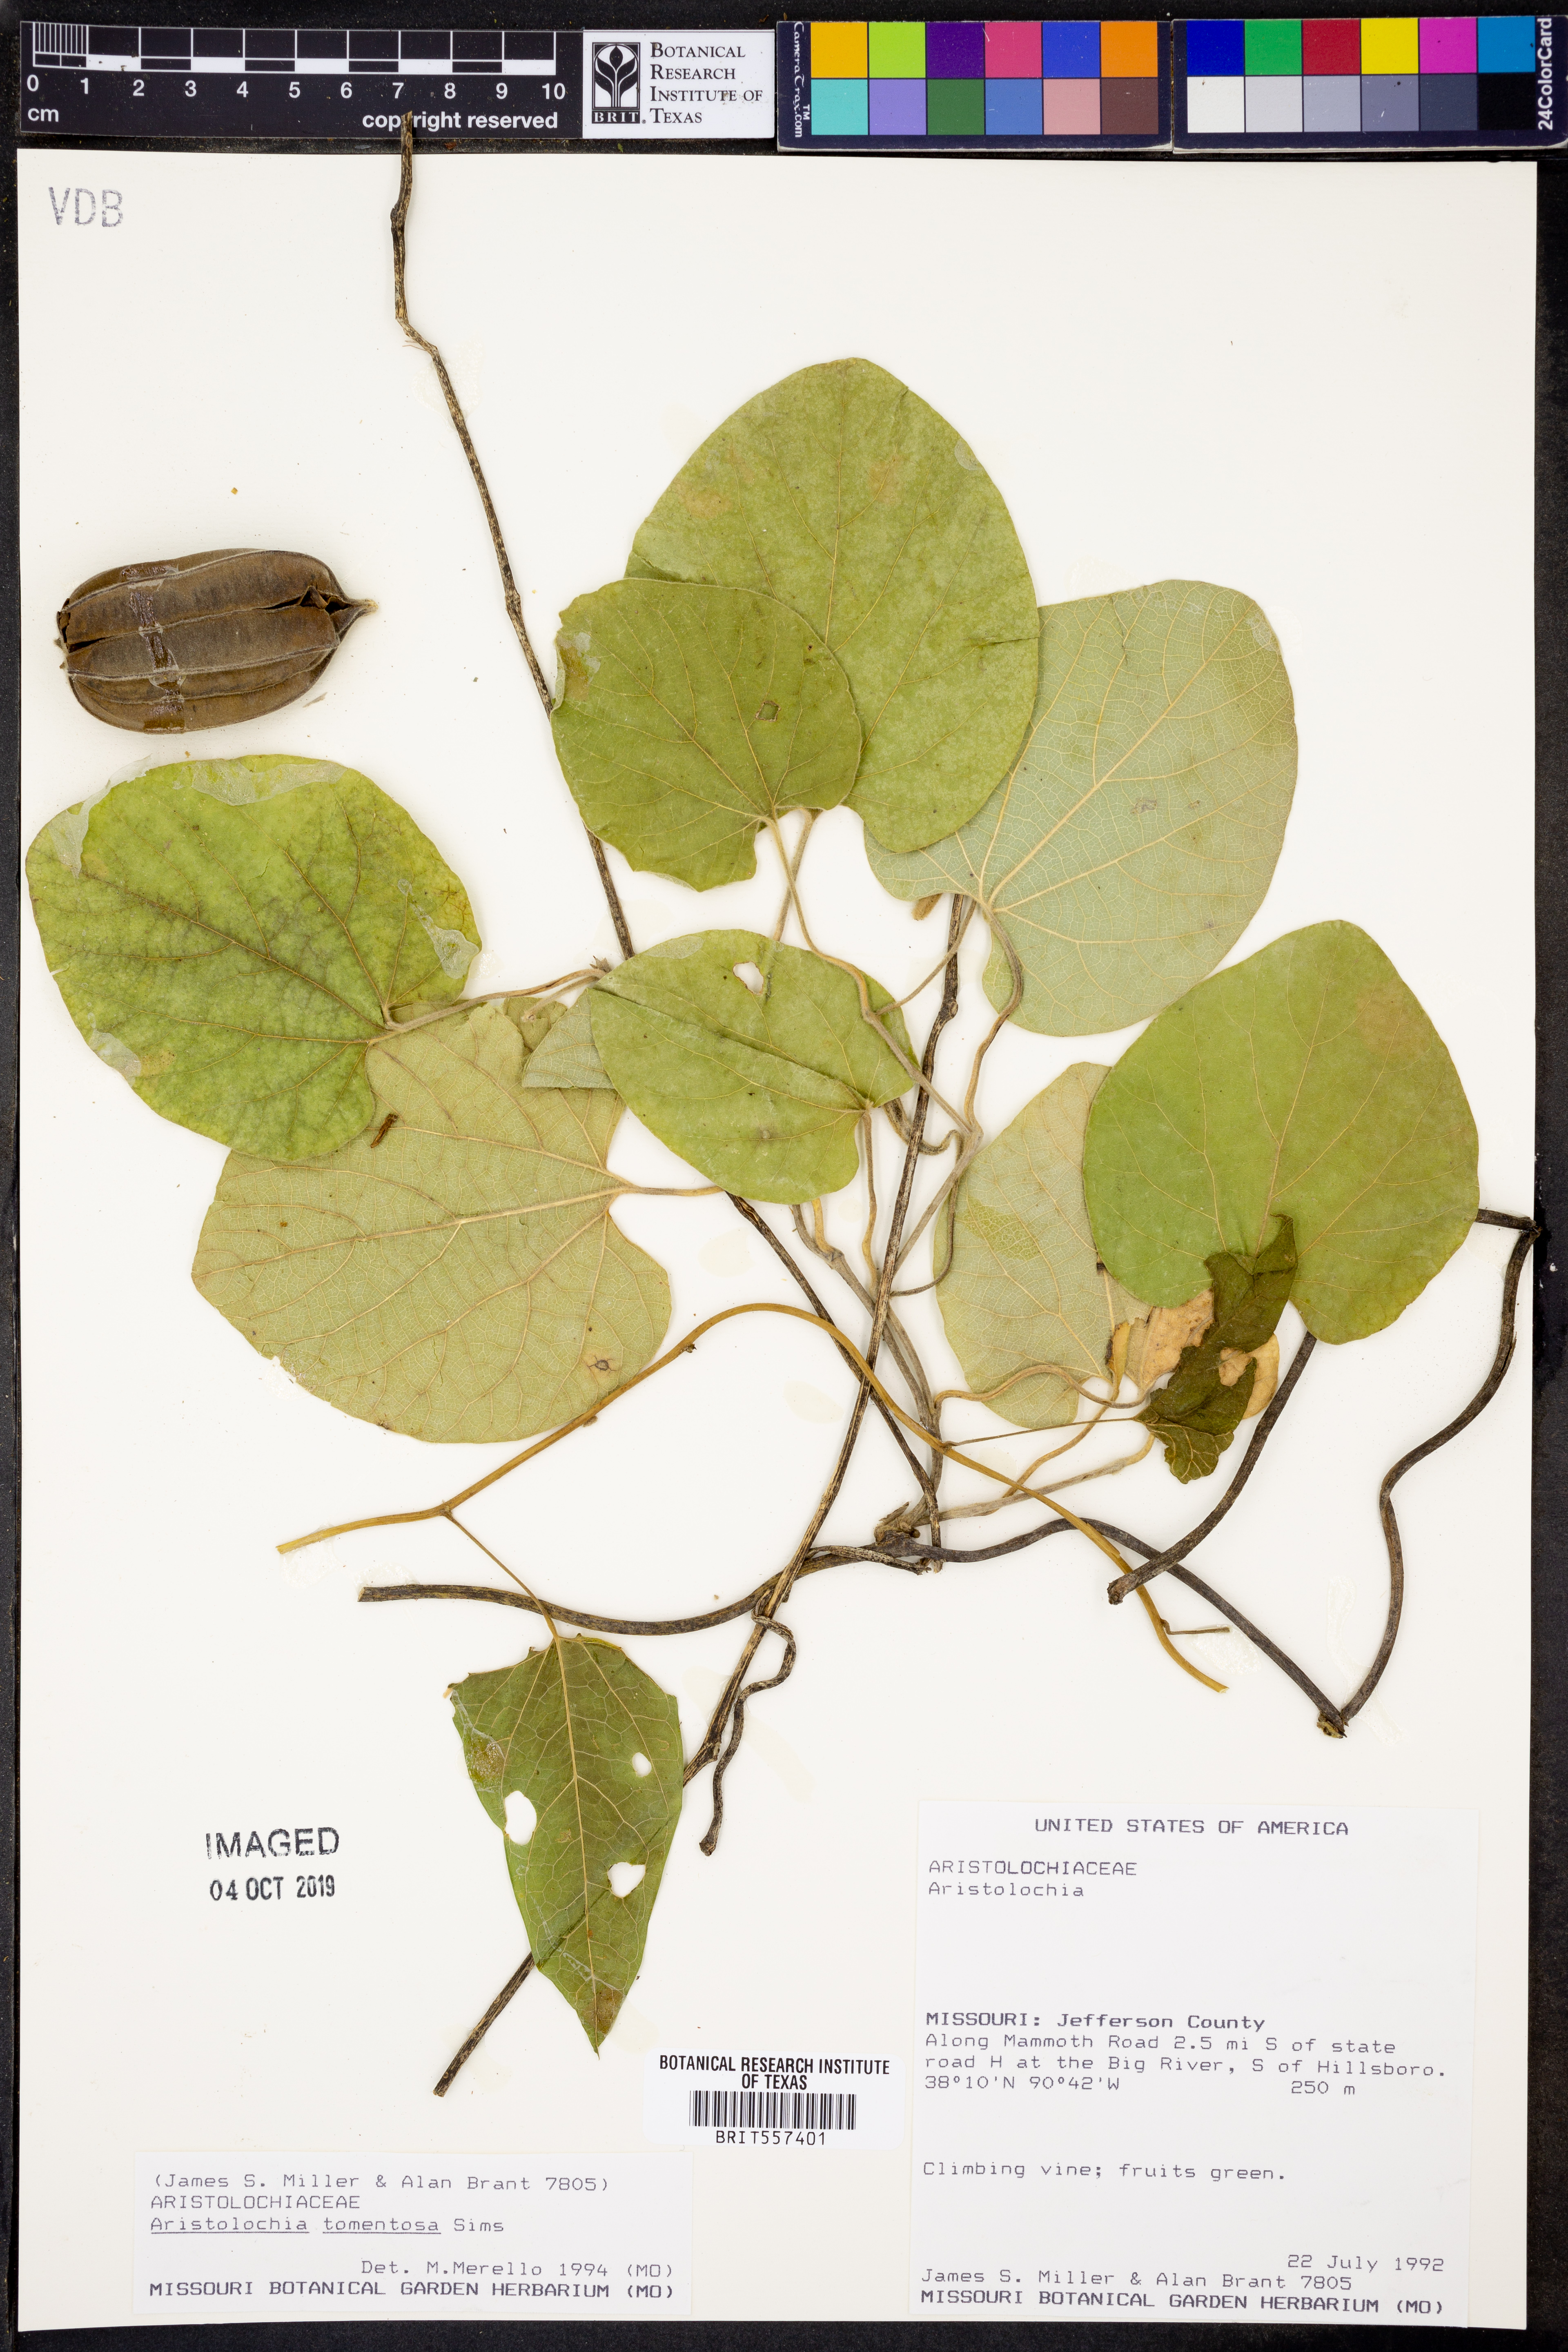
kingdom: Plantae
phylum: Tracheophyta
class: Magnoliopsida
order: Piperales
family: Aristolochiaceae
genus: Isotrema
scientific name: Isotrema tomentosum
